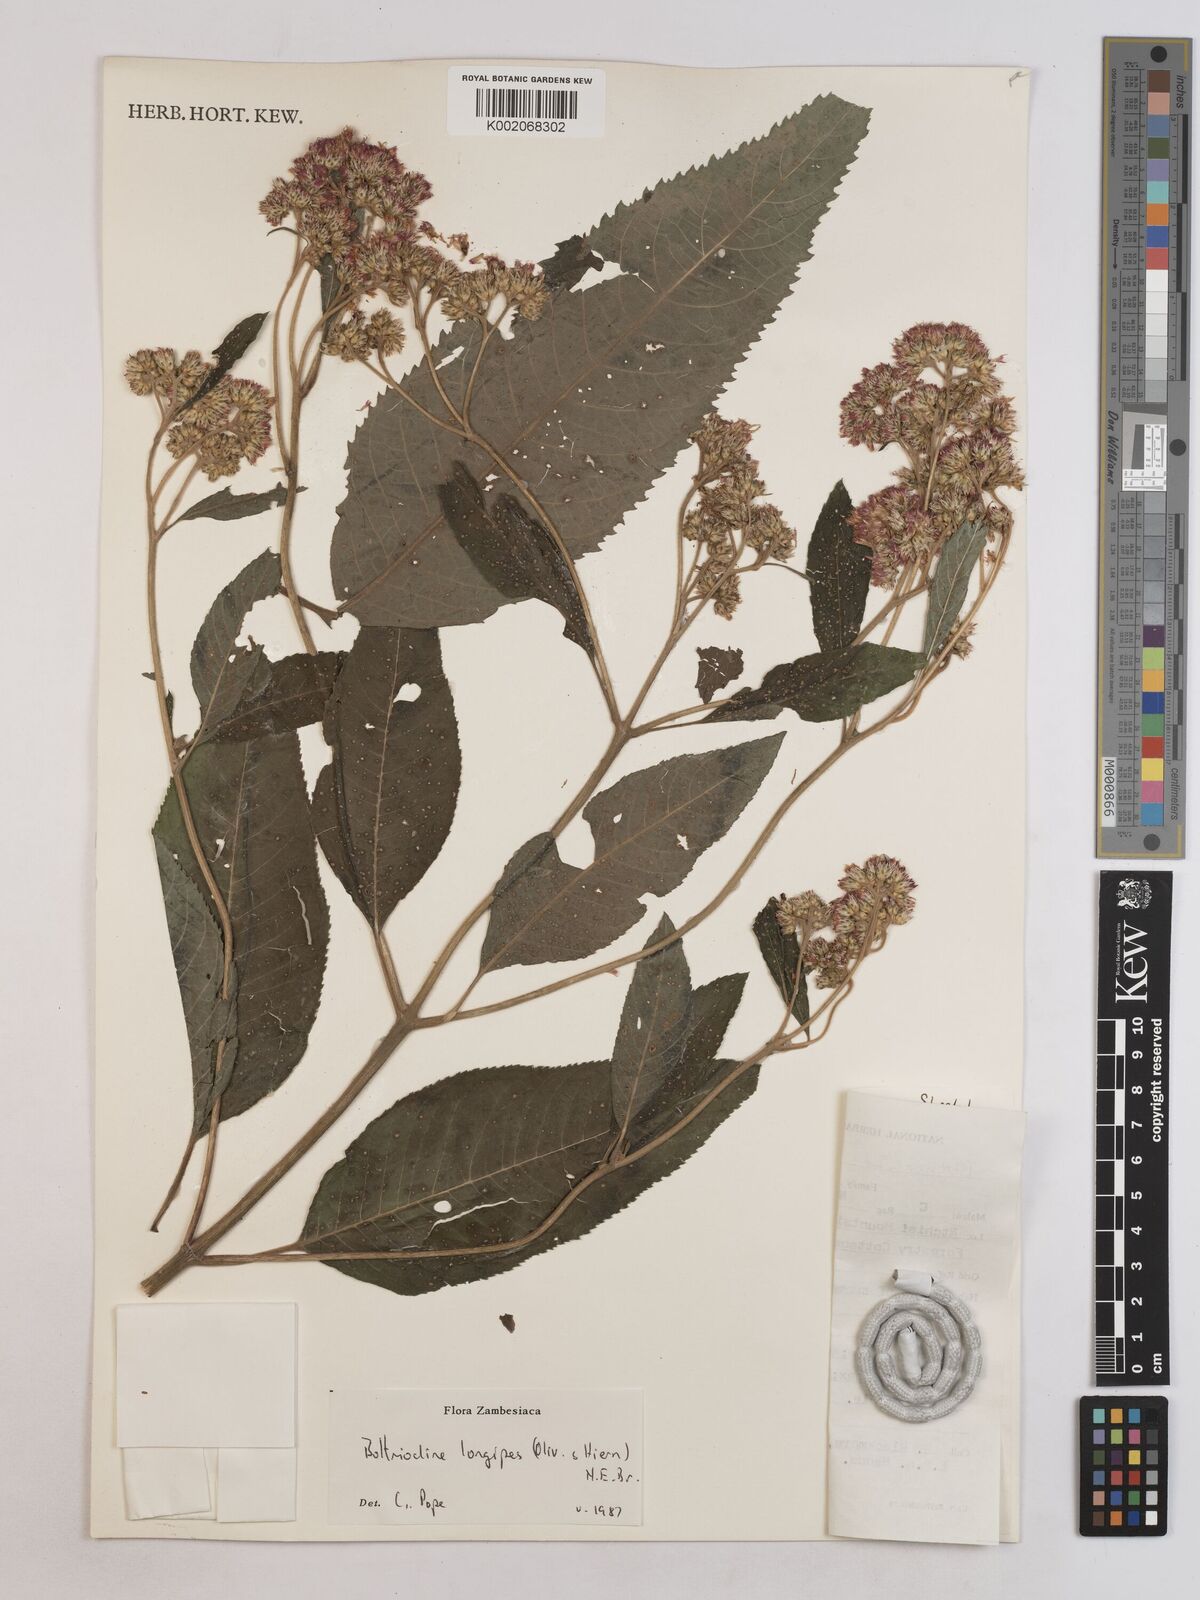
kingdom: Plantae
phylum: Tracheophyta
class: Magnoliopsida
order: Asterales
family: Asteraceae
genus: Bothriocline
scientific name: Bothriocline longipes
